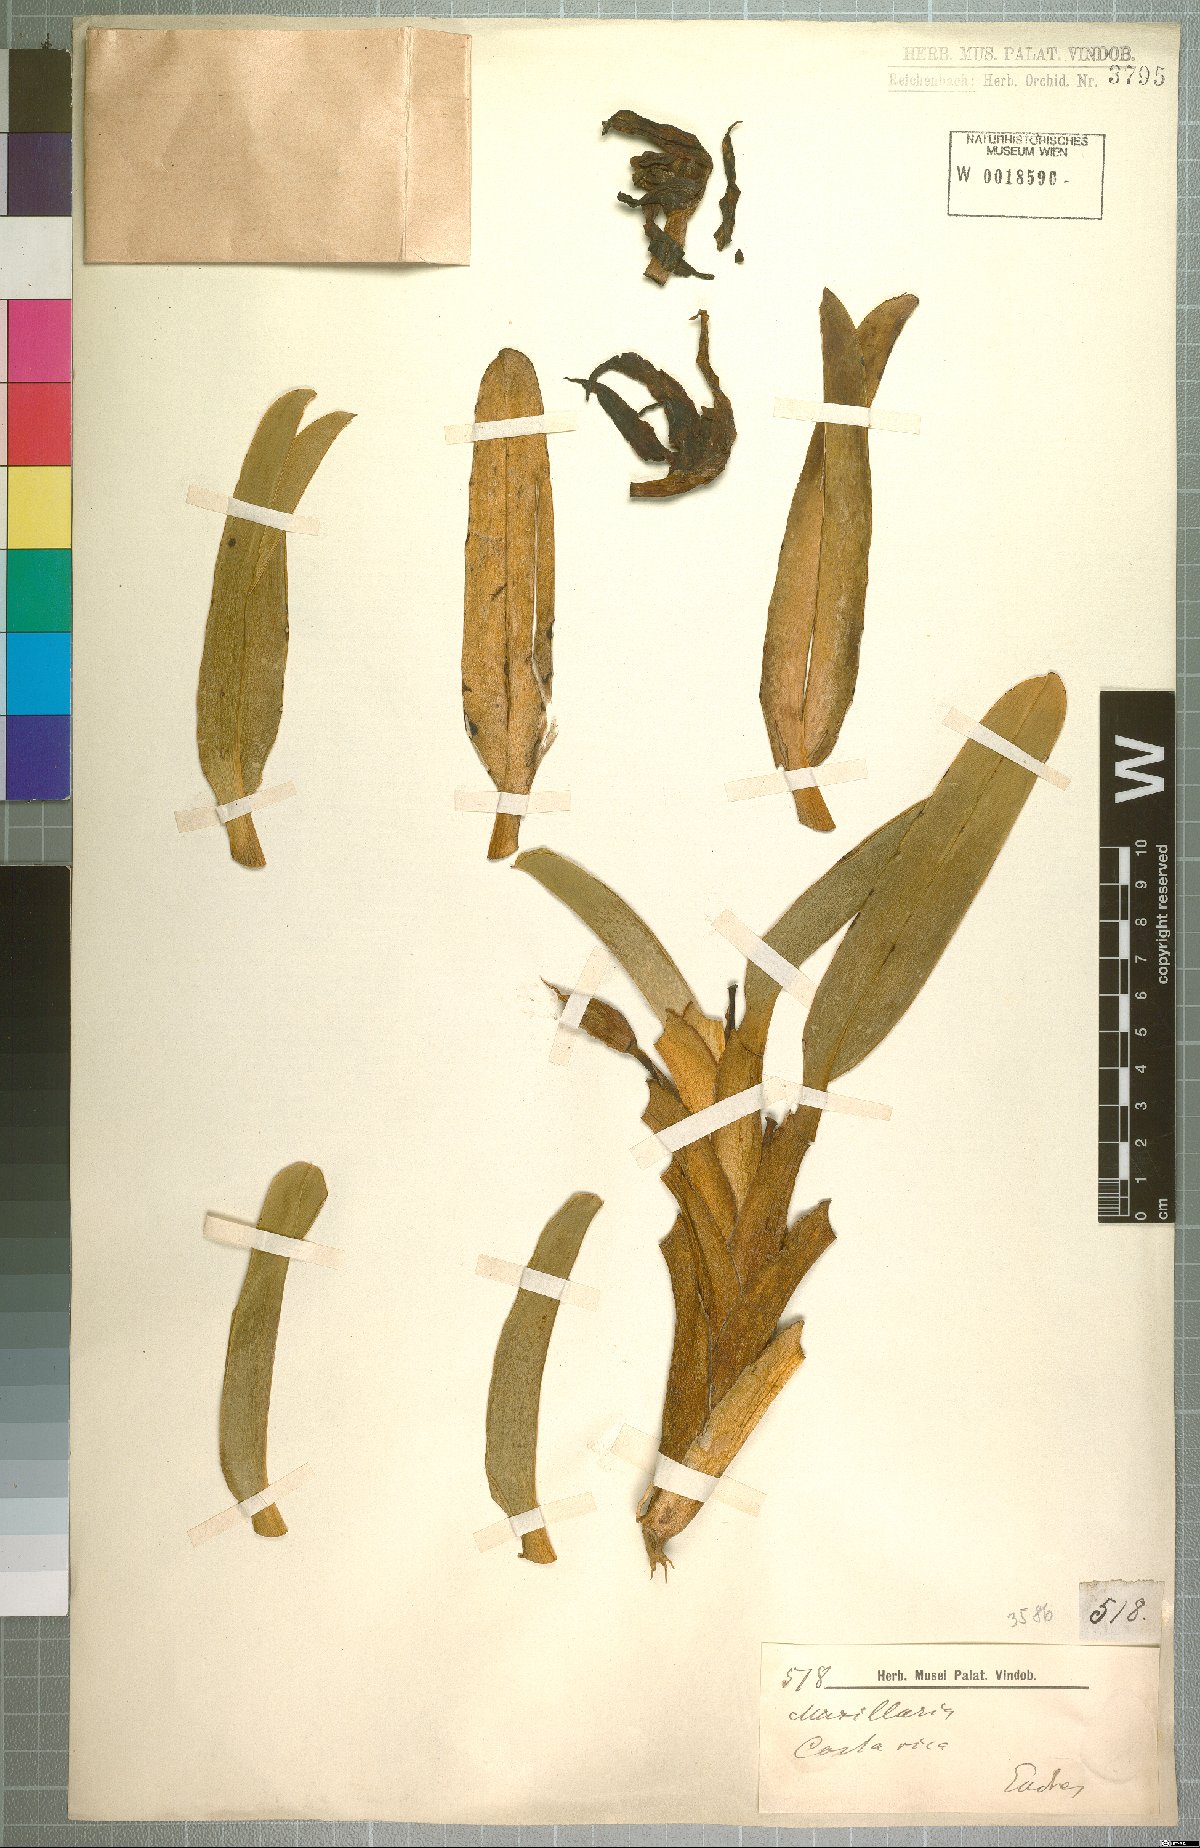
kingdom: Plantae
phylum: Tracheophyta
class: Liliopsida
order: Asparagales
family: Orchidaceae
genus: Maxillaria
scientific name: Maxillaria
